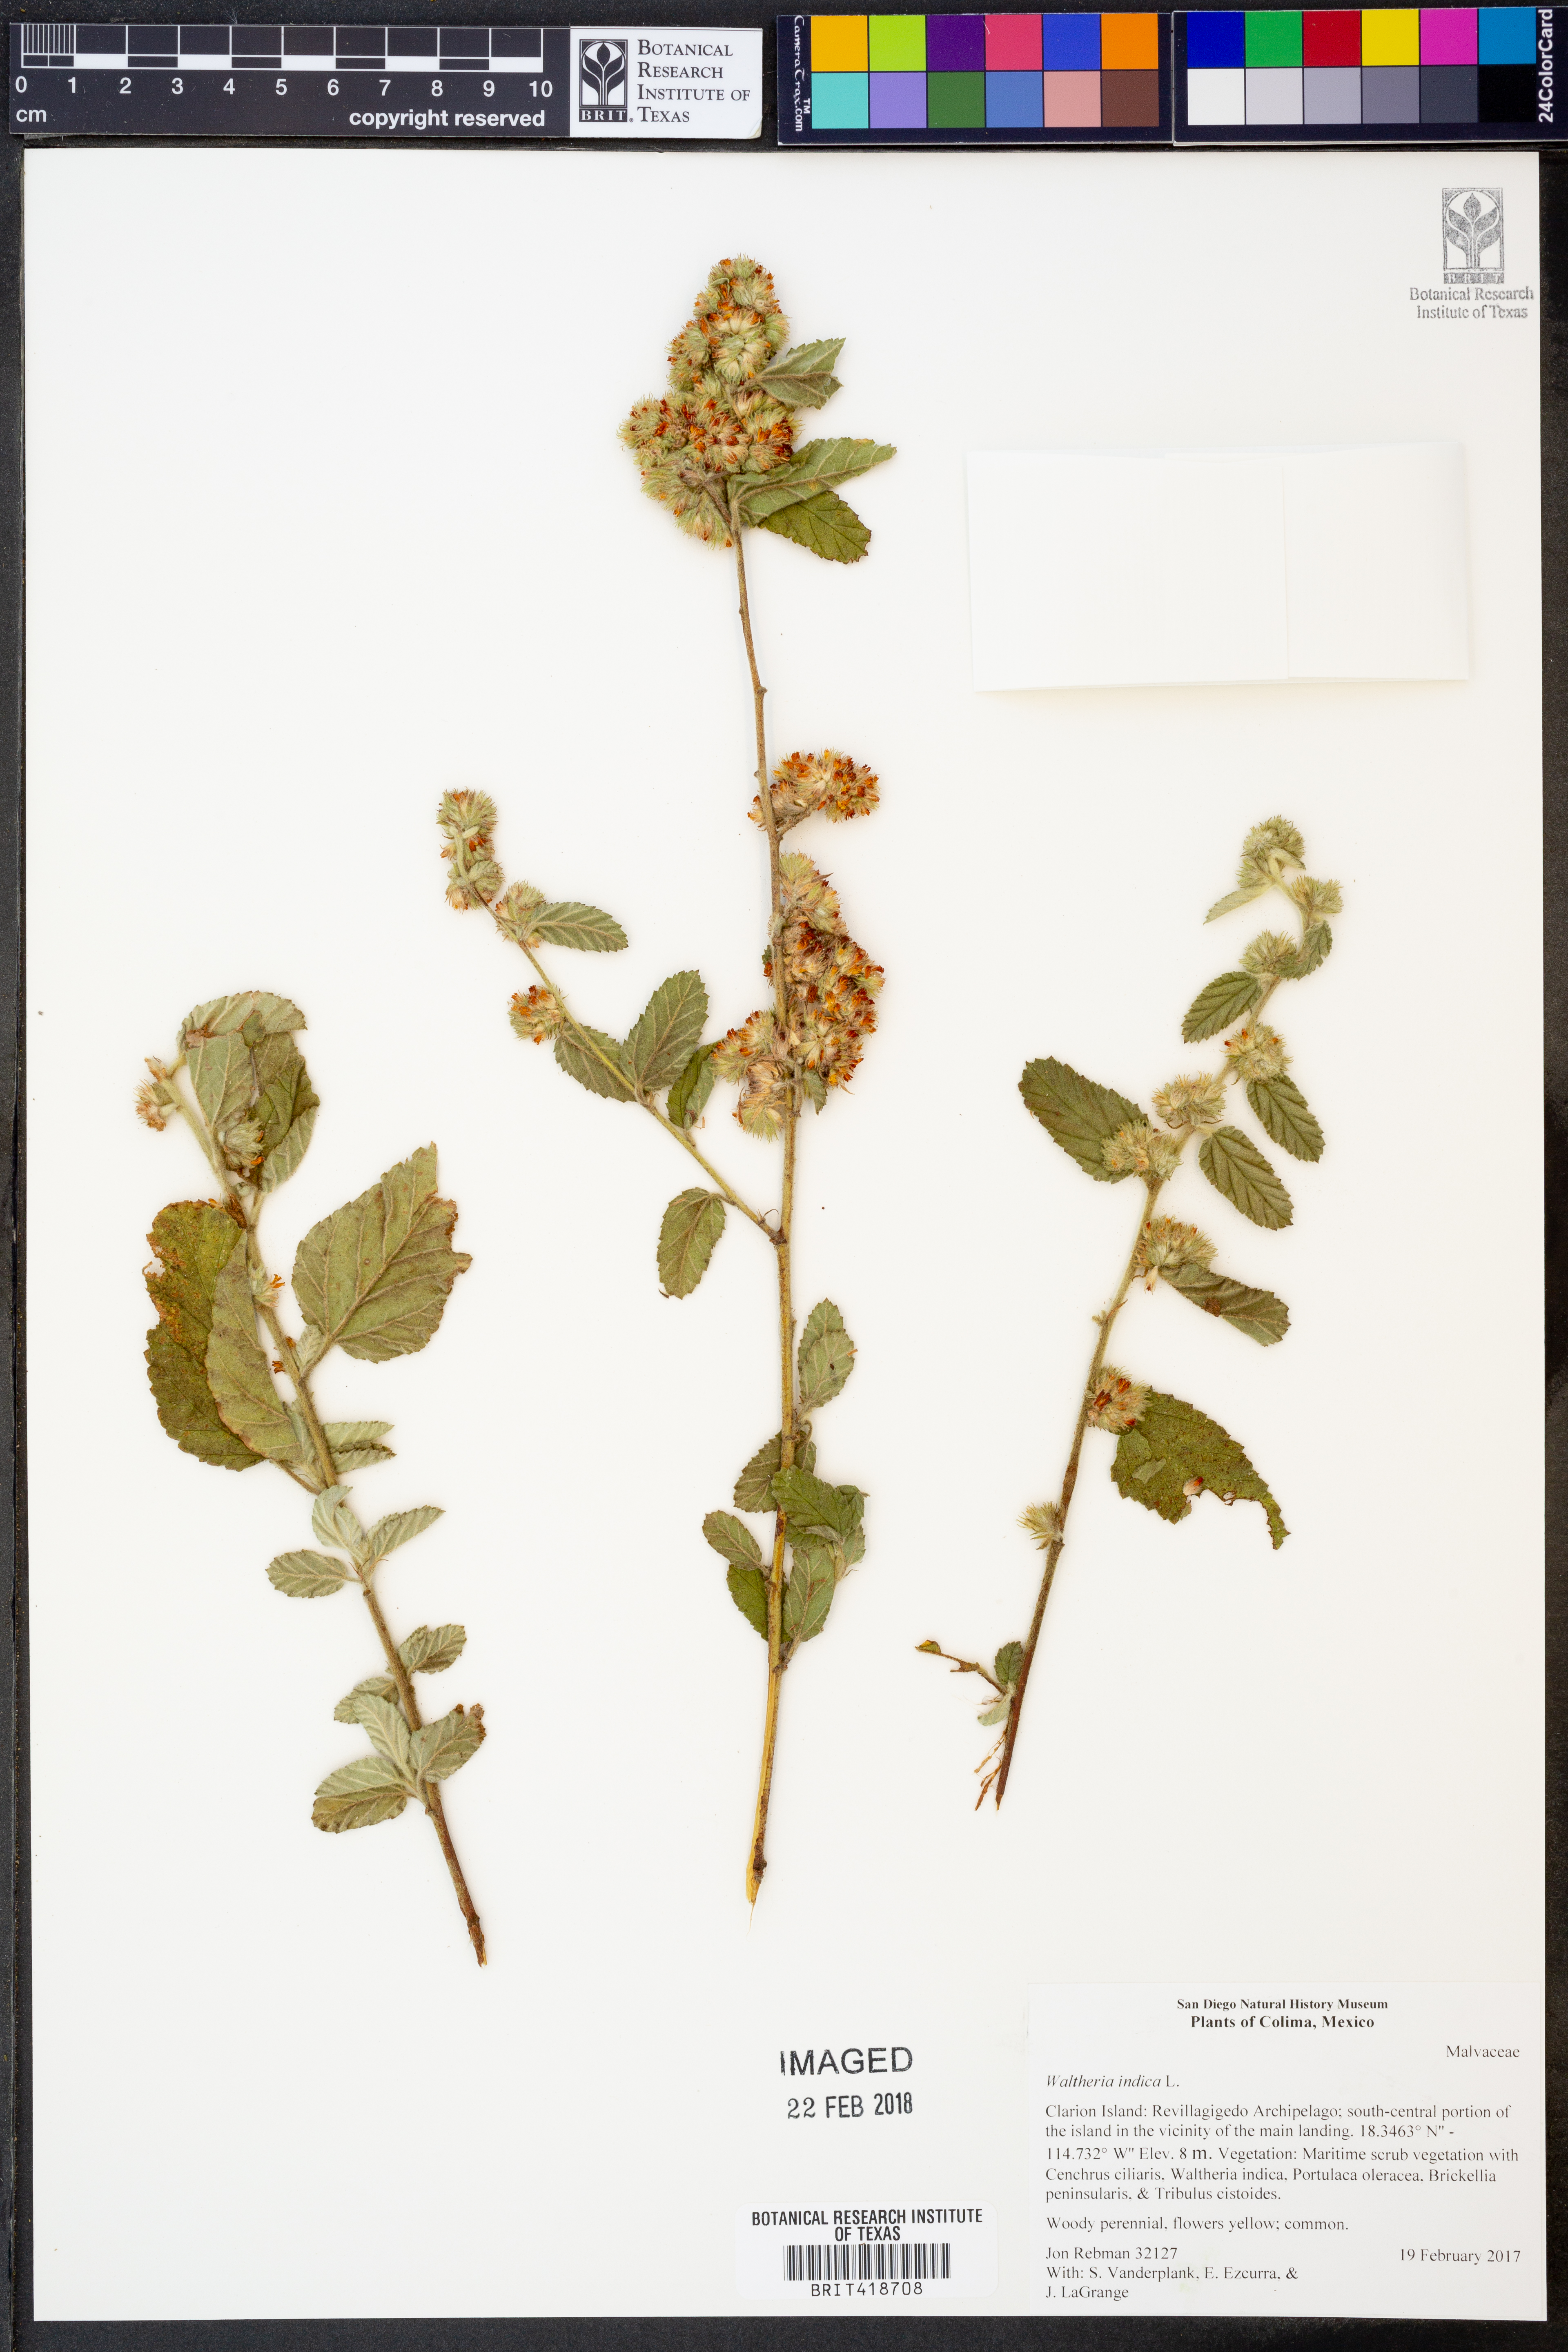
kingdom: Plantae
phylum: Tracheophyta
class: Magnoliopsida
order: Malvales
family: Malvaceae
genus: Waltheria
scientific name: Waltheria indica
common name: Leather-coat
